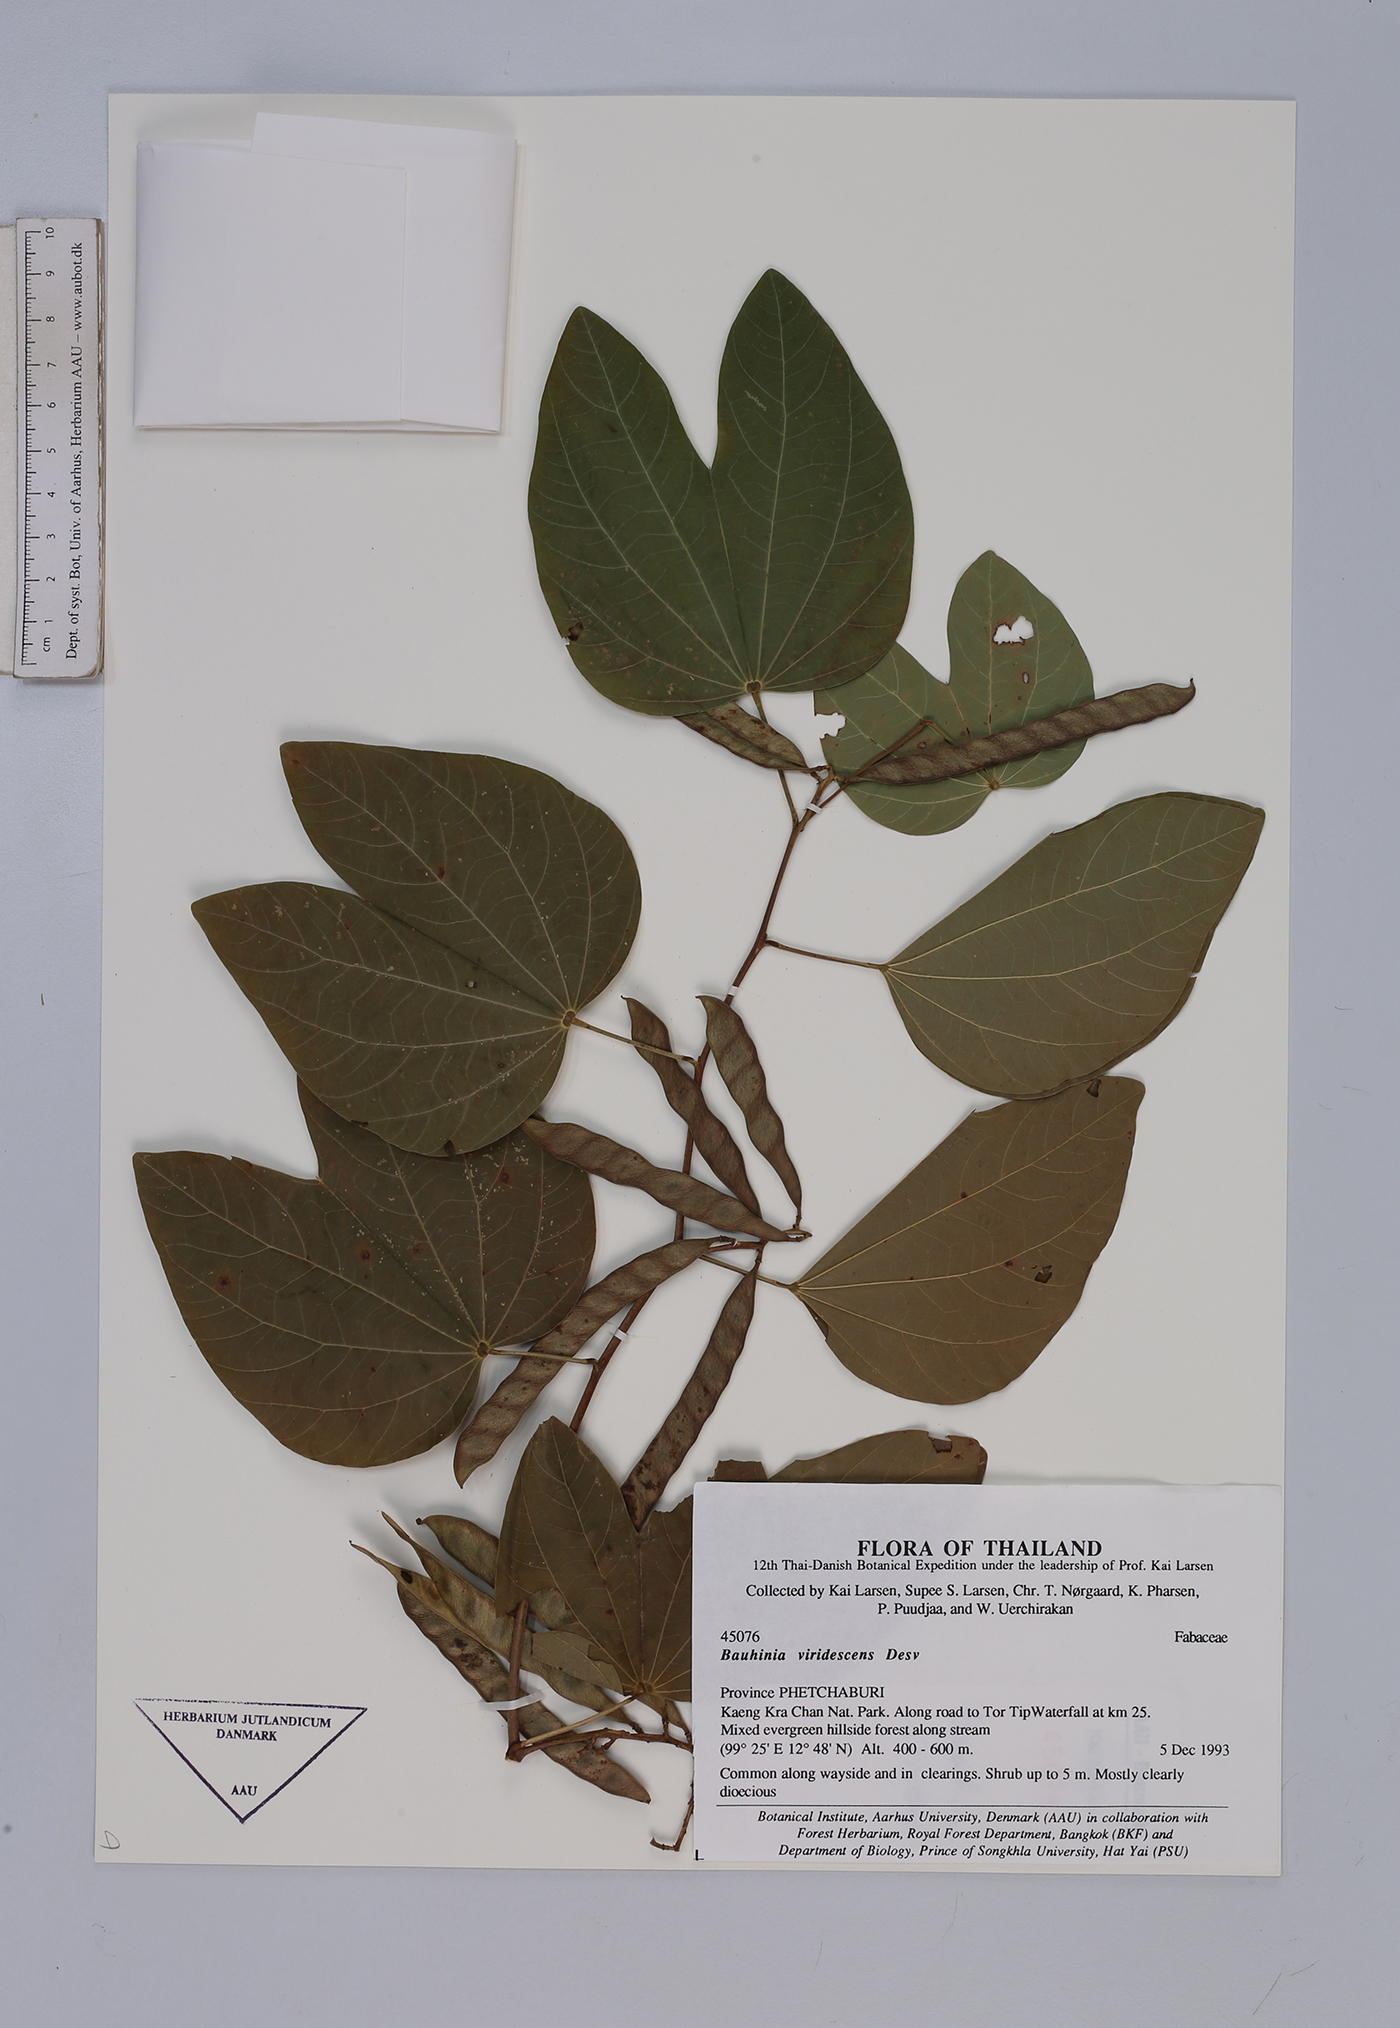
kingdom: Plantae
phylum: Tracheophyta
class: Magnoliopsida
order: Fabales
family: Fabaceae
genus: Bauhinia
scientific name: Bauhinia viridescens
